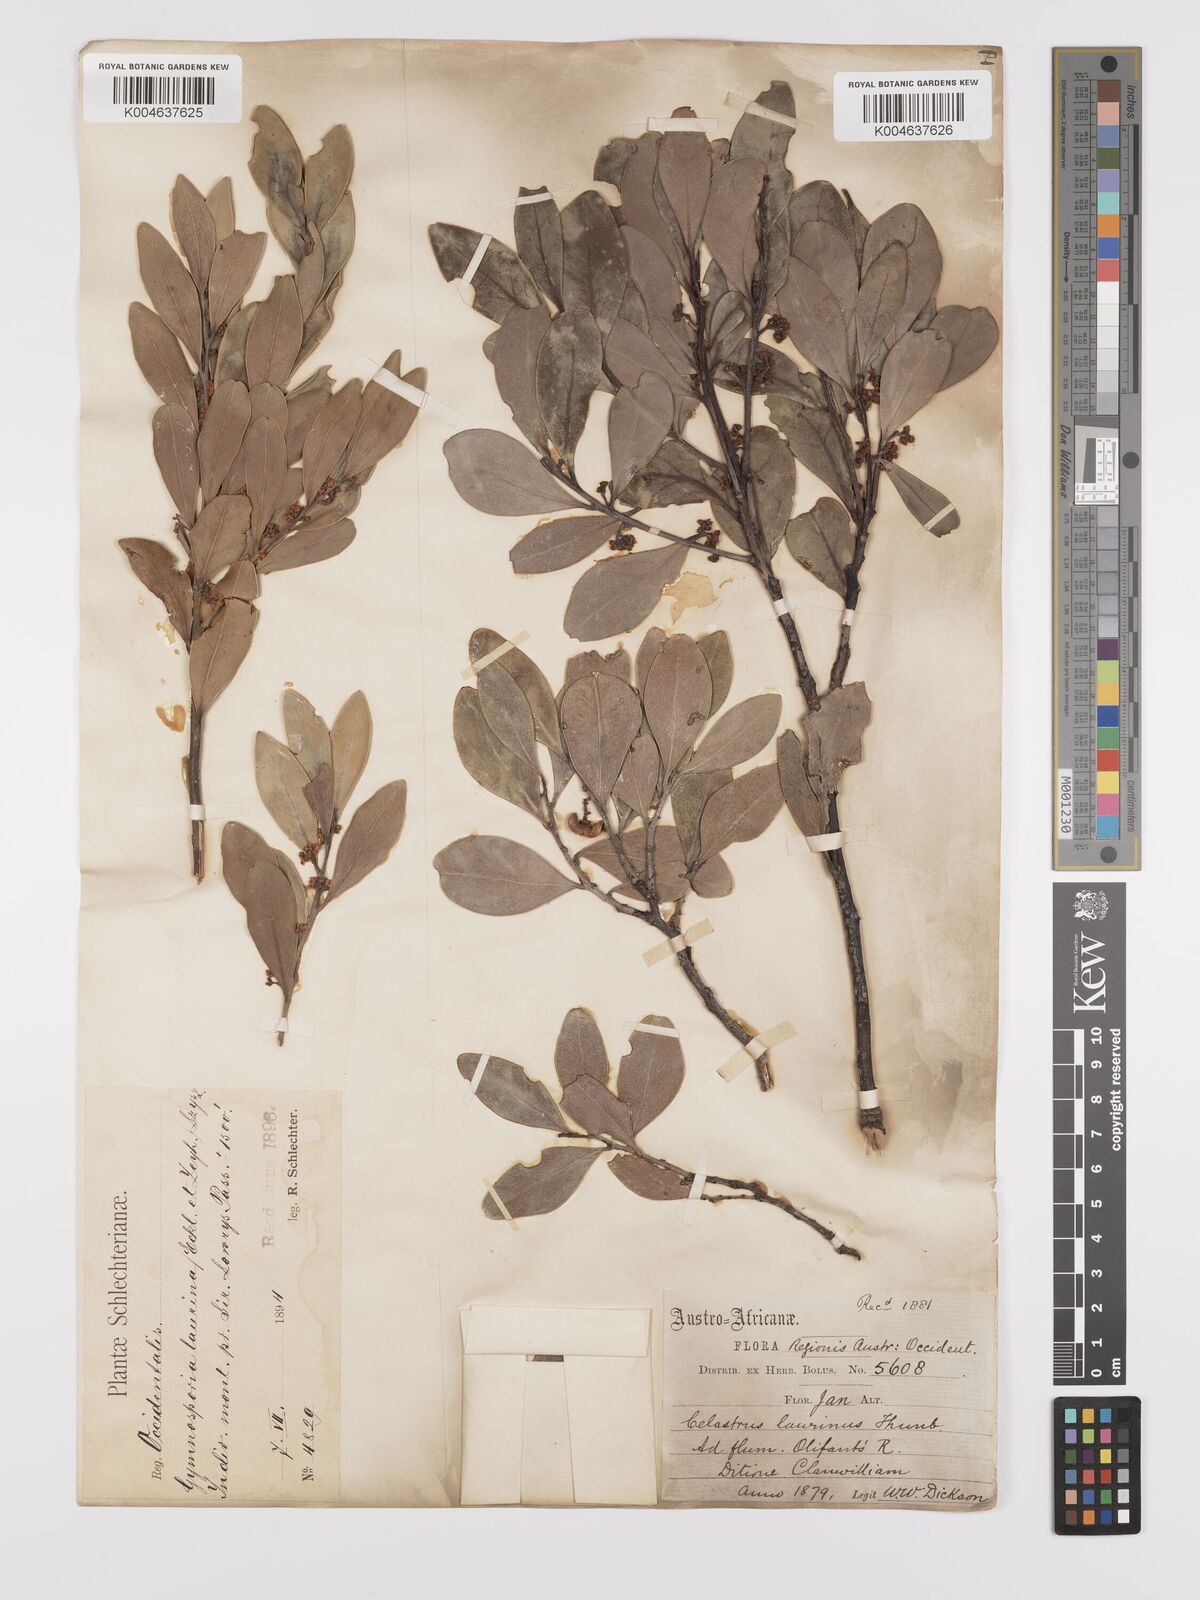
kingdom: Plantae
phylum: Tracheophyta
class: Magnoliopsida
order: Celastrales
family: Celastraceae
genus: Gymnosporia
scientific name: Gymnosporia laurina
